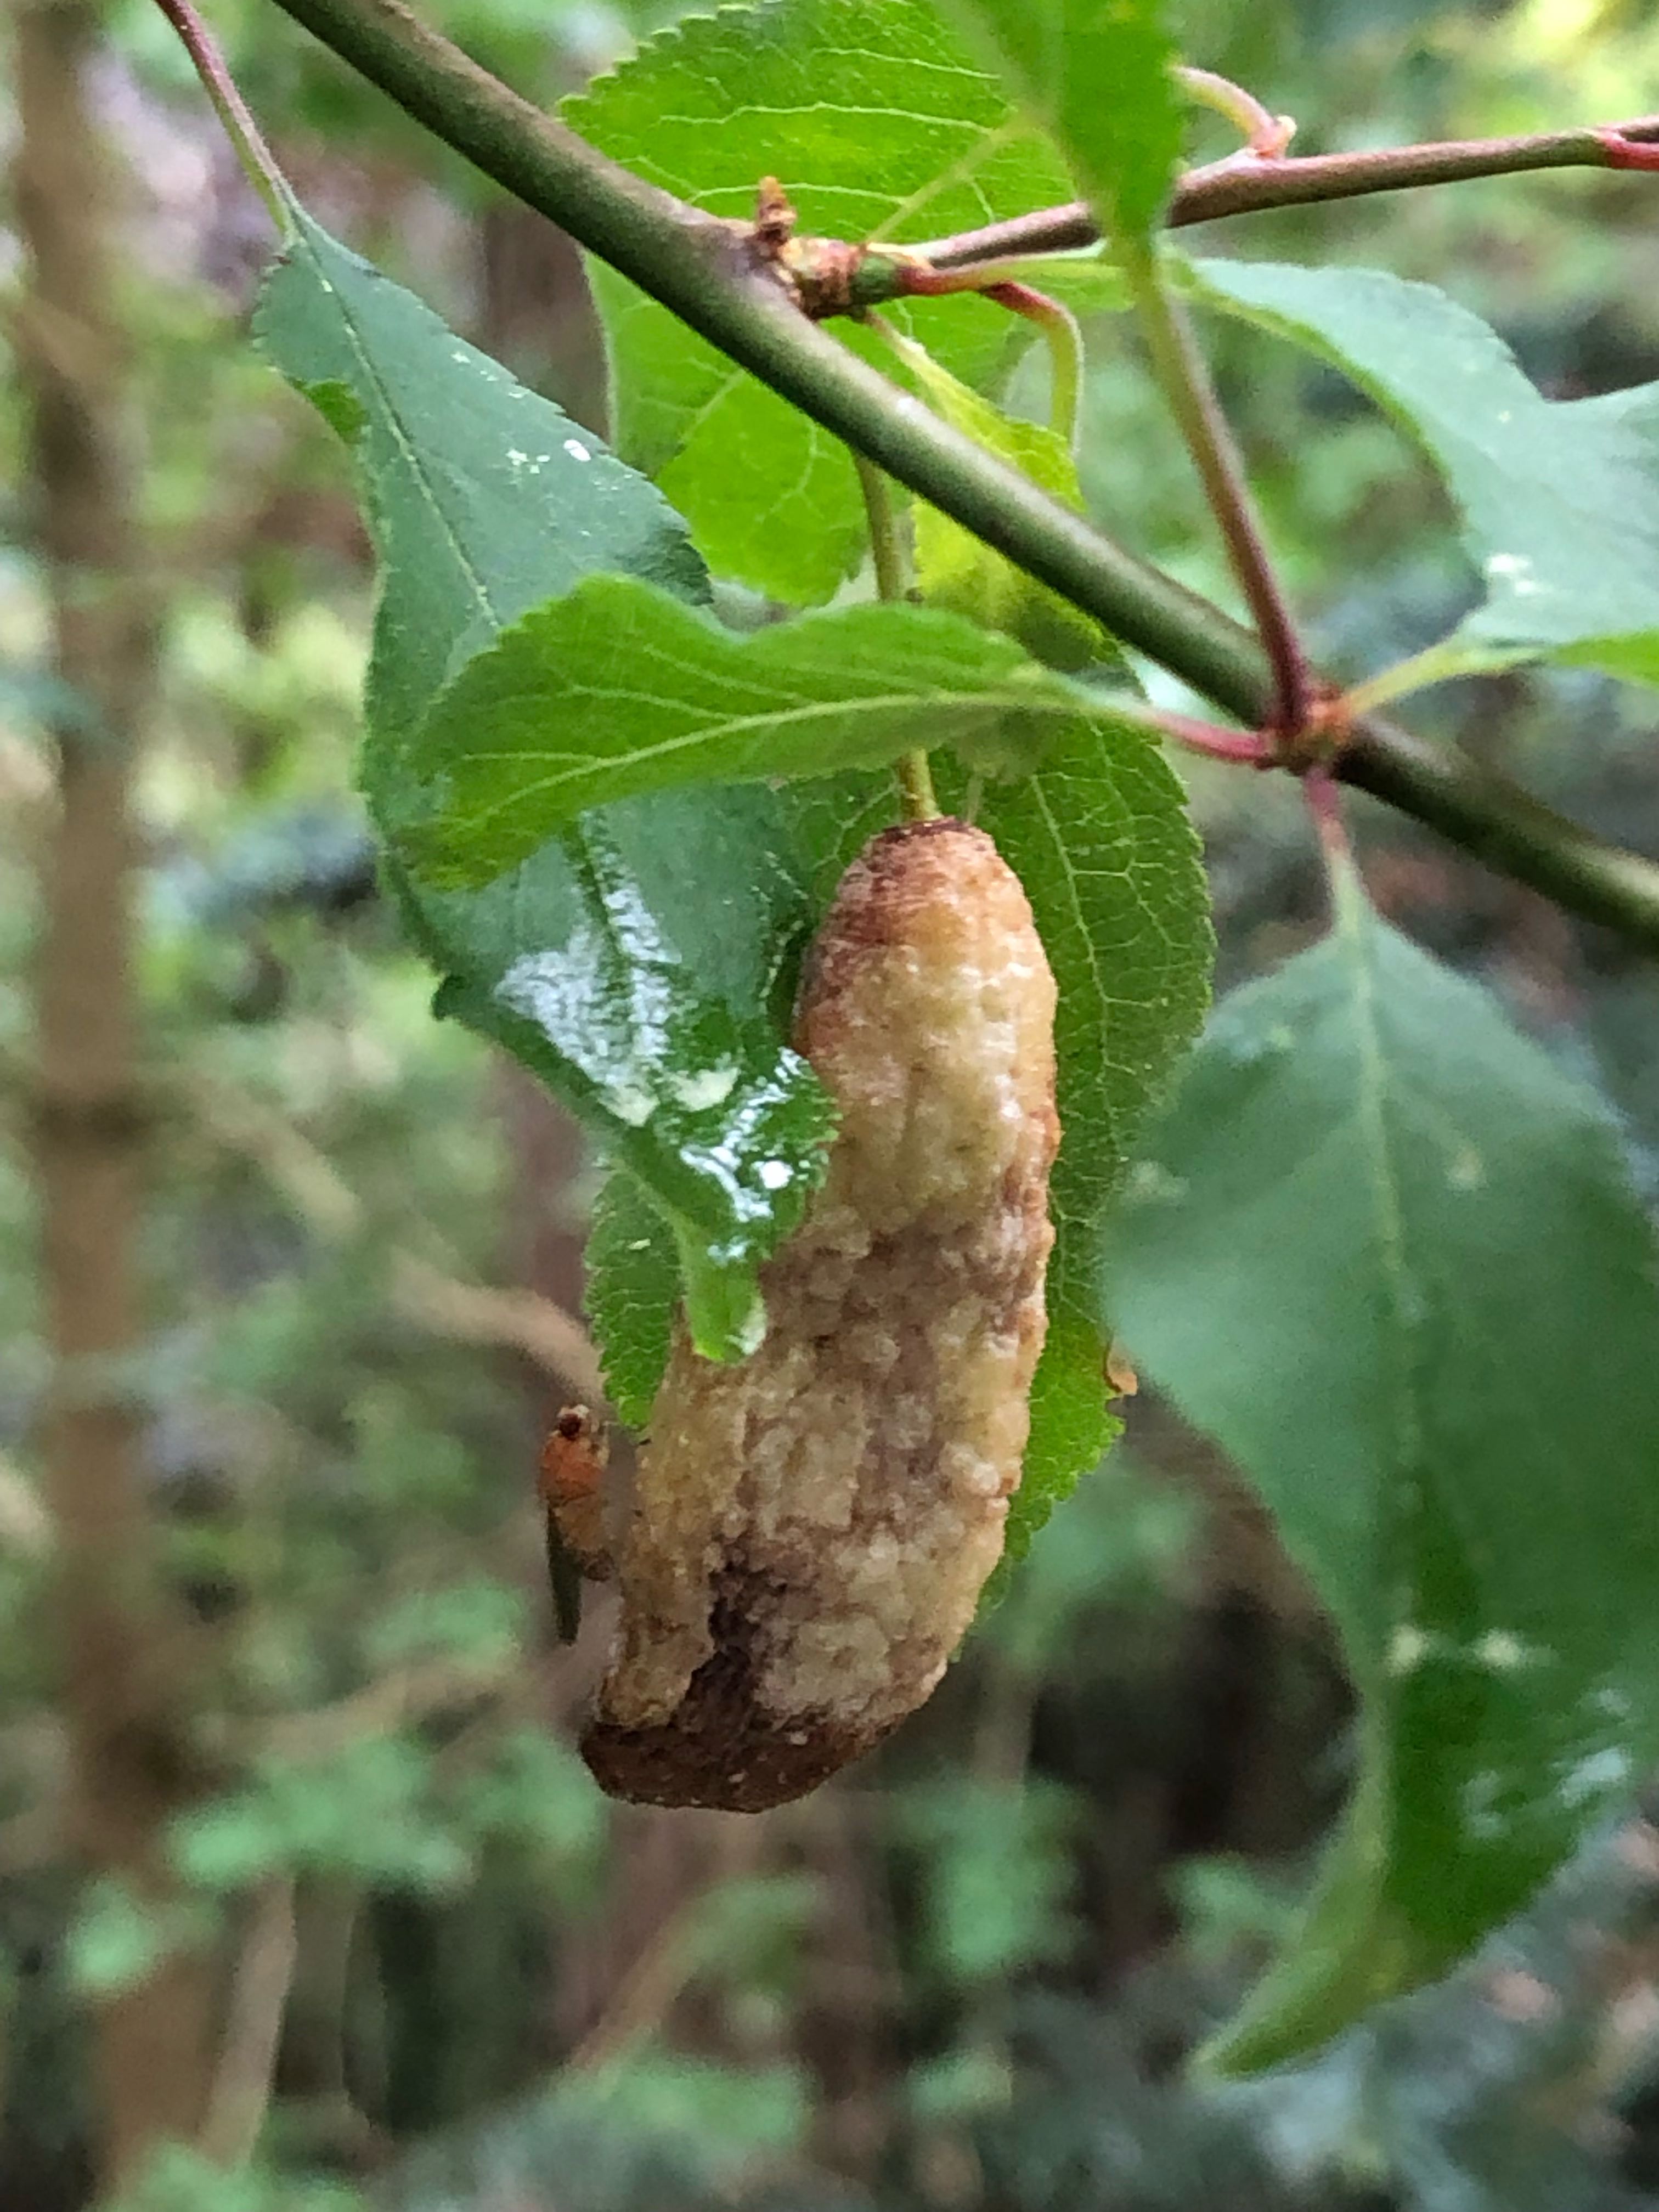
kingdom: Fungi
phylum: Ascomycota
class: Taphrinomycetes
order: Taphrinales
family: Taphrinaceae
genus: Taphrina
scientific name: Taphrina pruni
